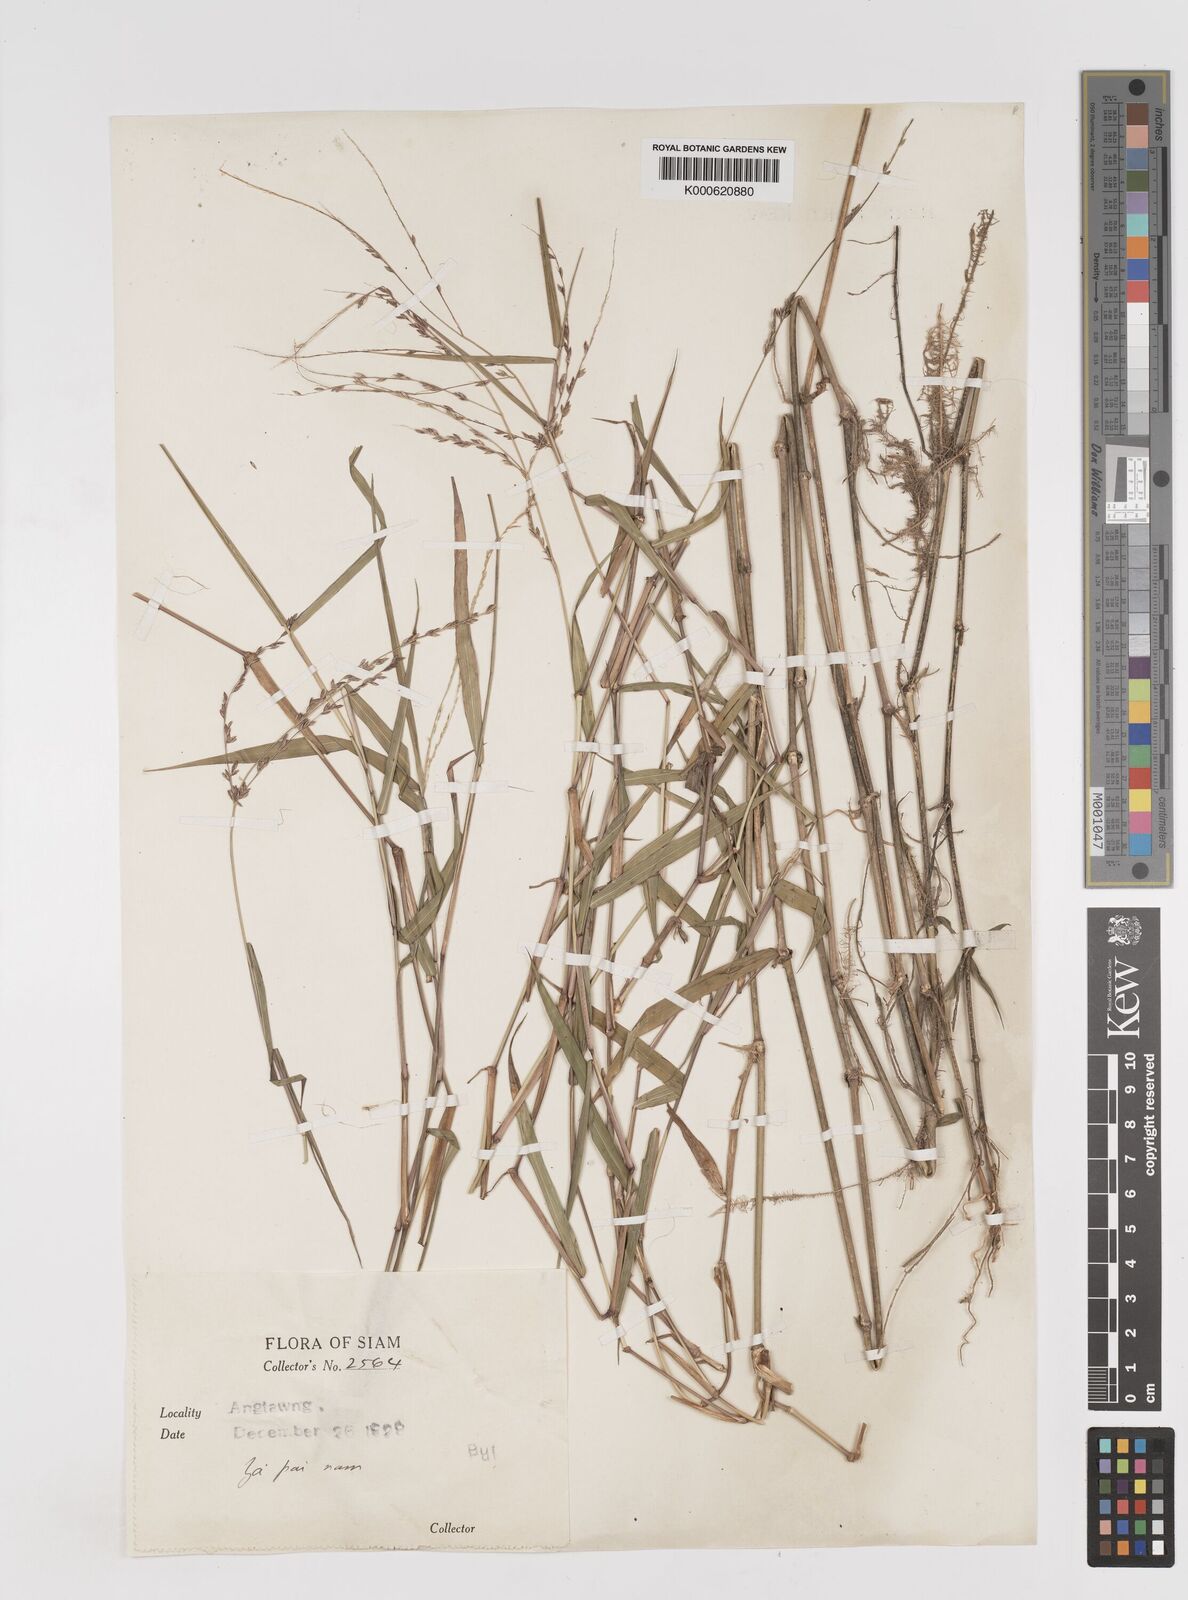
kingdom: Plantae
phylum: Tracheophyta
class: Liliopsida
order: Poales
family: Poaceae
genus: Ottochloa
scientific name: Ottochloa nodosa
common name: Slender-panic grass
